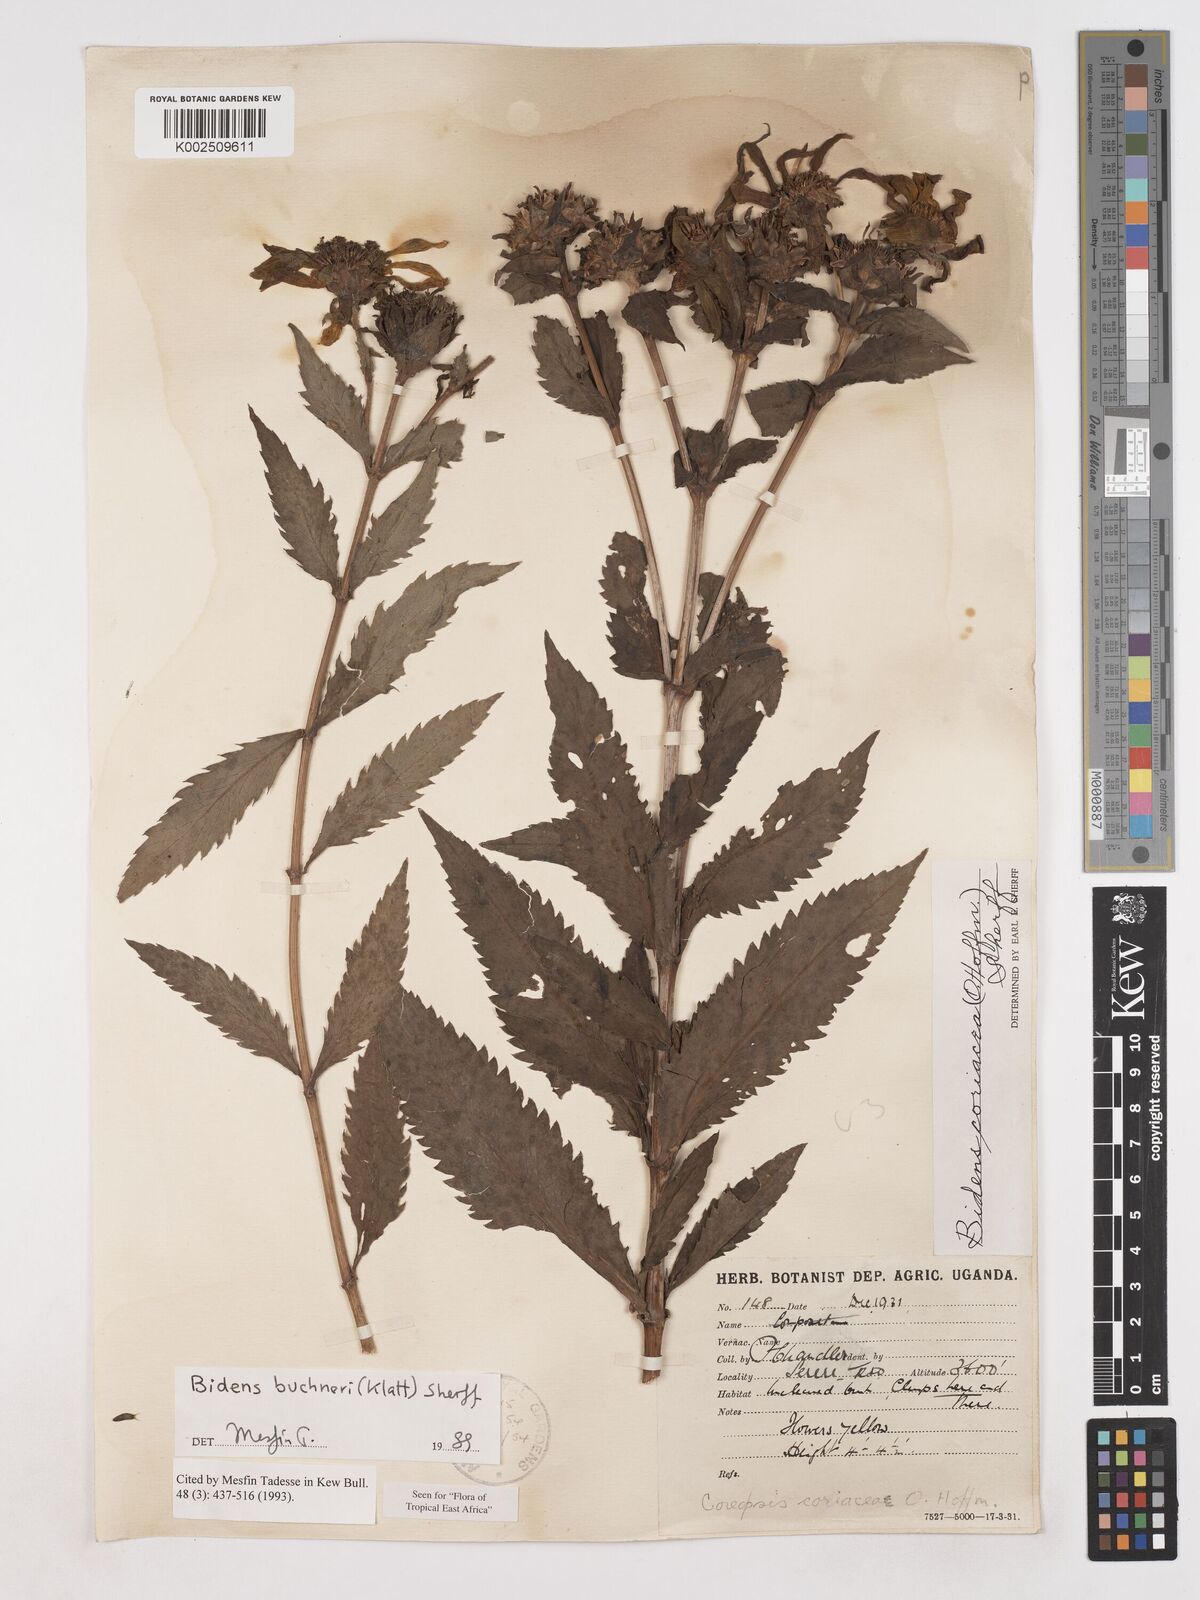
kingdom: Plantae
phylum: Tracheophyta
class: Magnoliopsida
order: Asterales
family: Asteraceae
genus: Bidens
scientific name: Bidens buchneri
